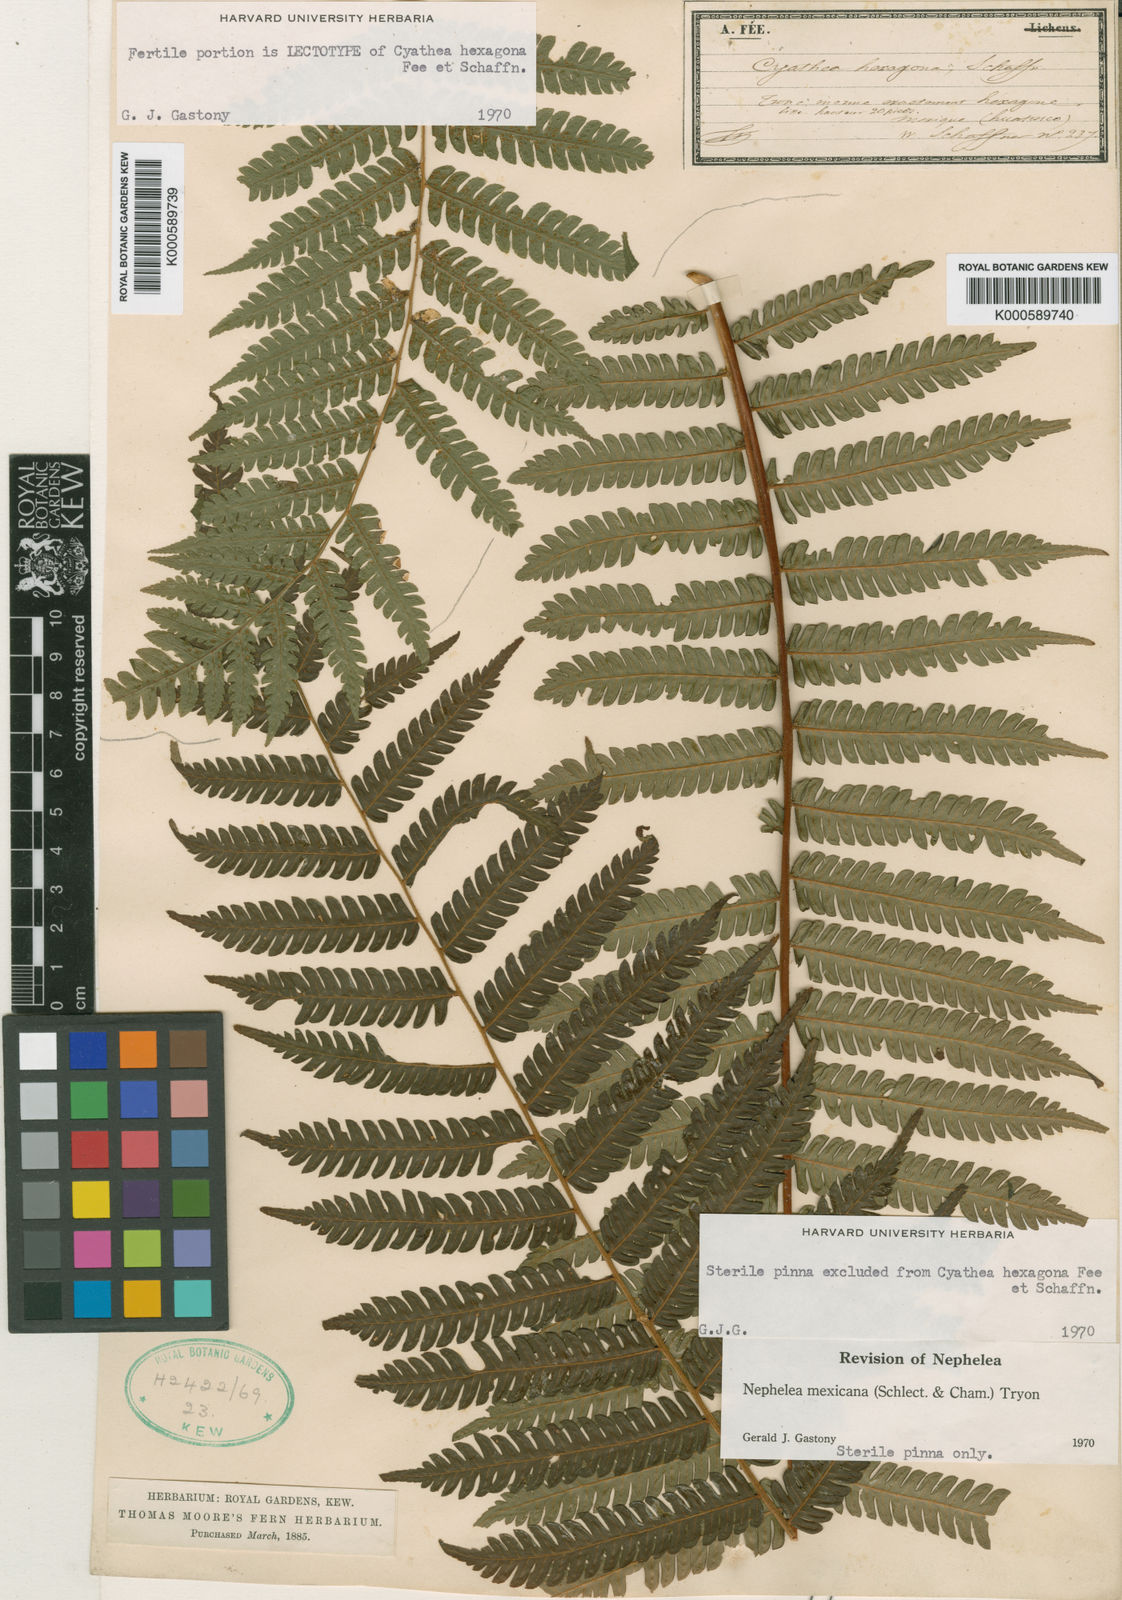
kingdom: Plantae
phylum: Tracheophyta
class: Polypodiopsida
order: Cyatheales
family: Cyatheaceae
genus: Cyathea
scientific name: Cyathea
